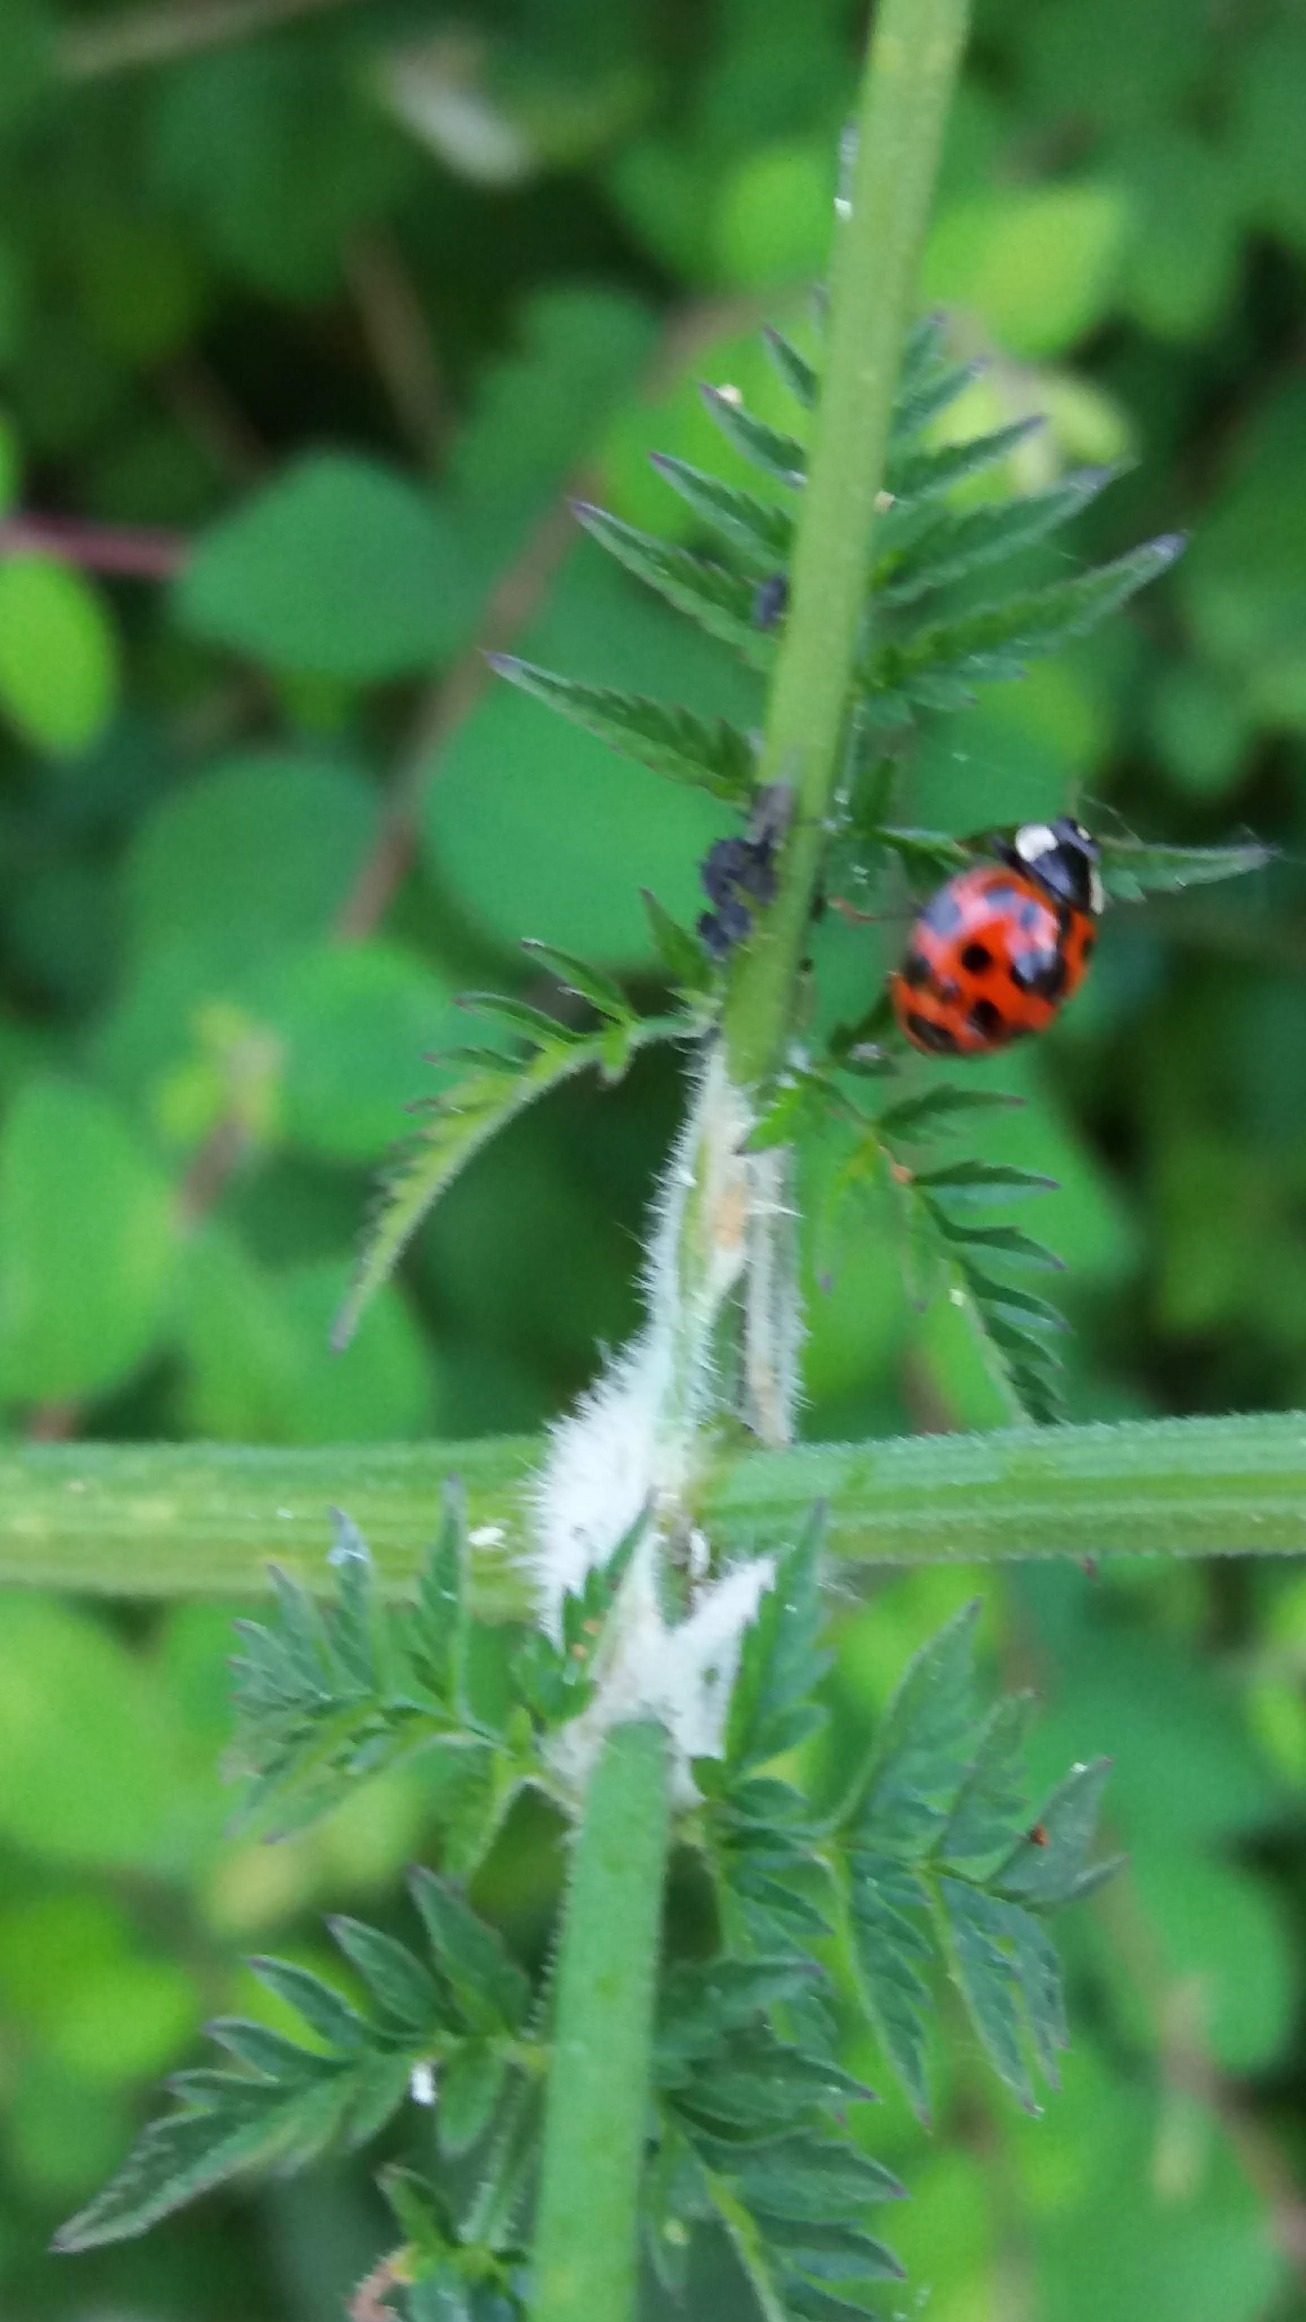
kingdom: Animalia
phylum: Arthropoda
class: Insecta
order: Coleoptera
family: Coccinellidae
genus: Harmonia
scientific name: Harmonia axyridis
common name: Harlekinmariehøne
